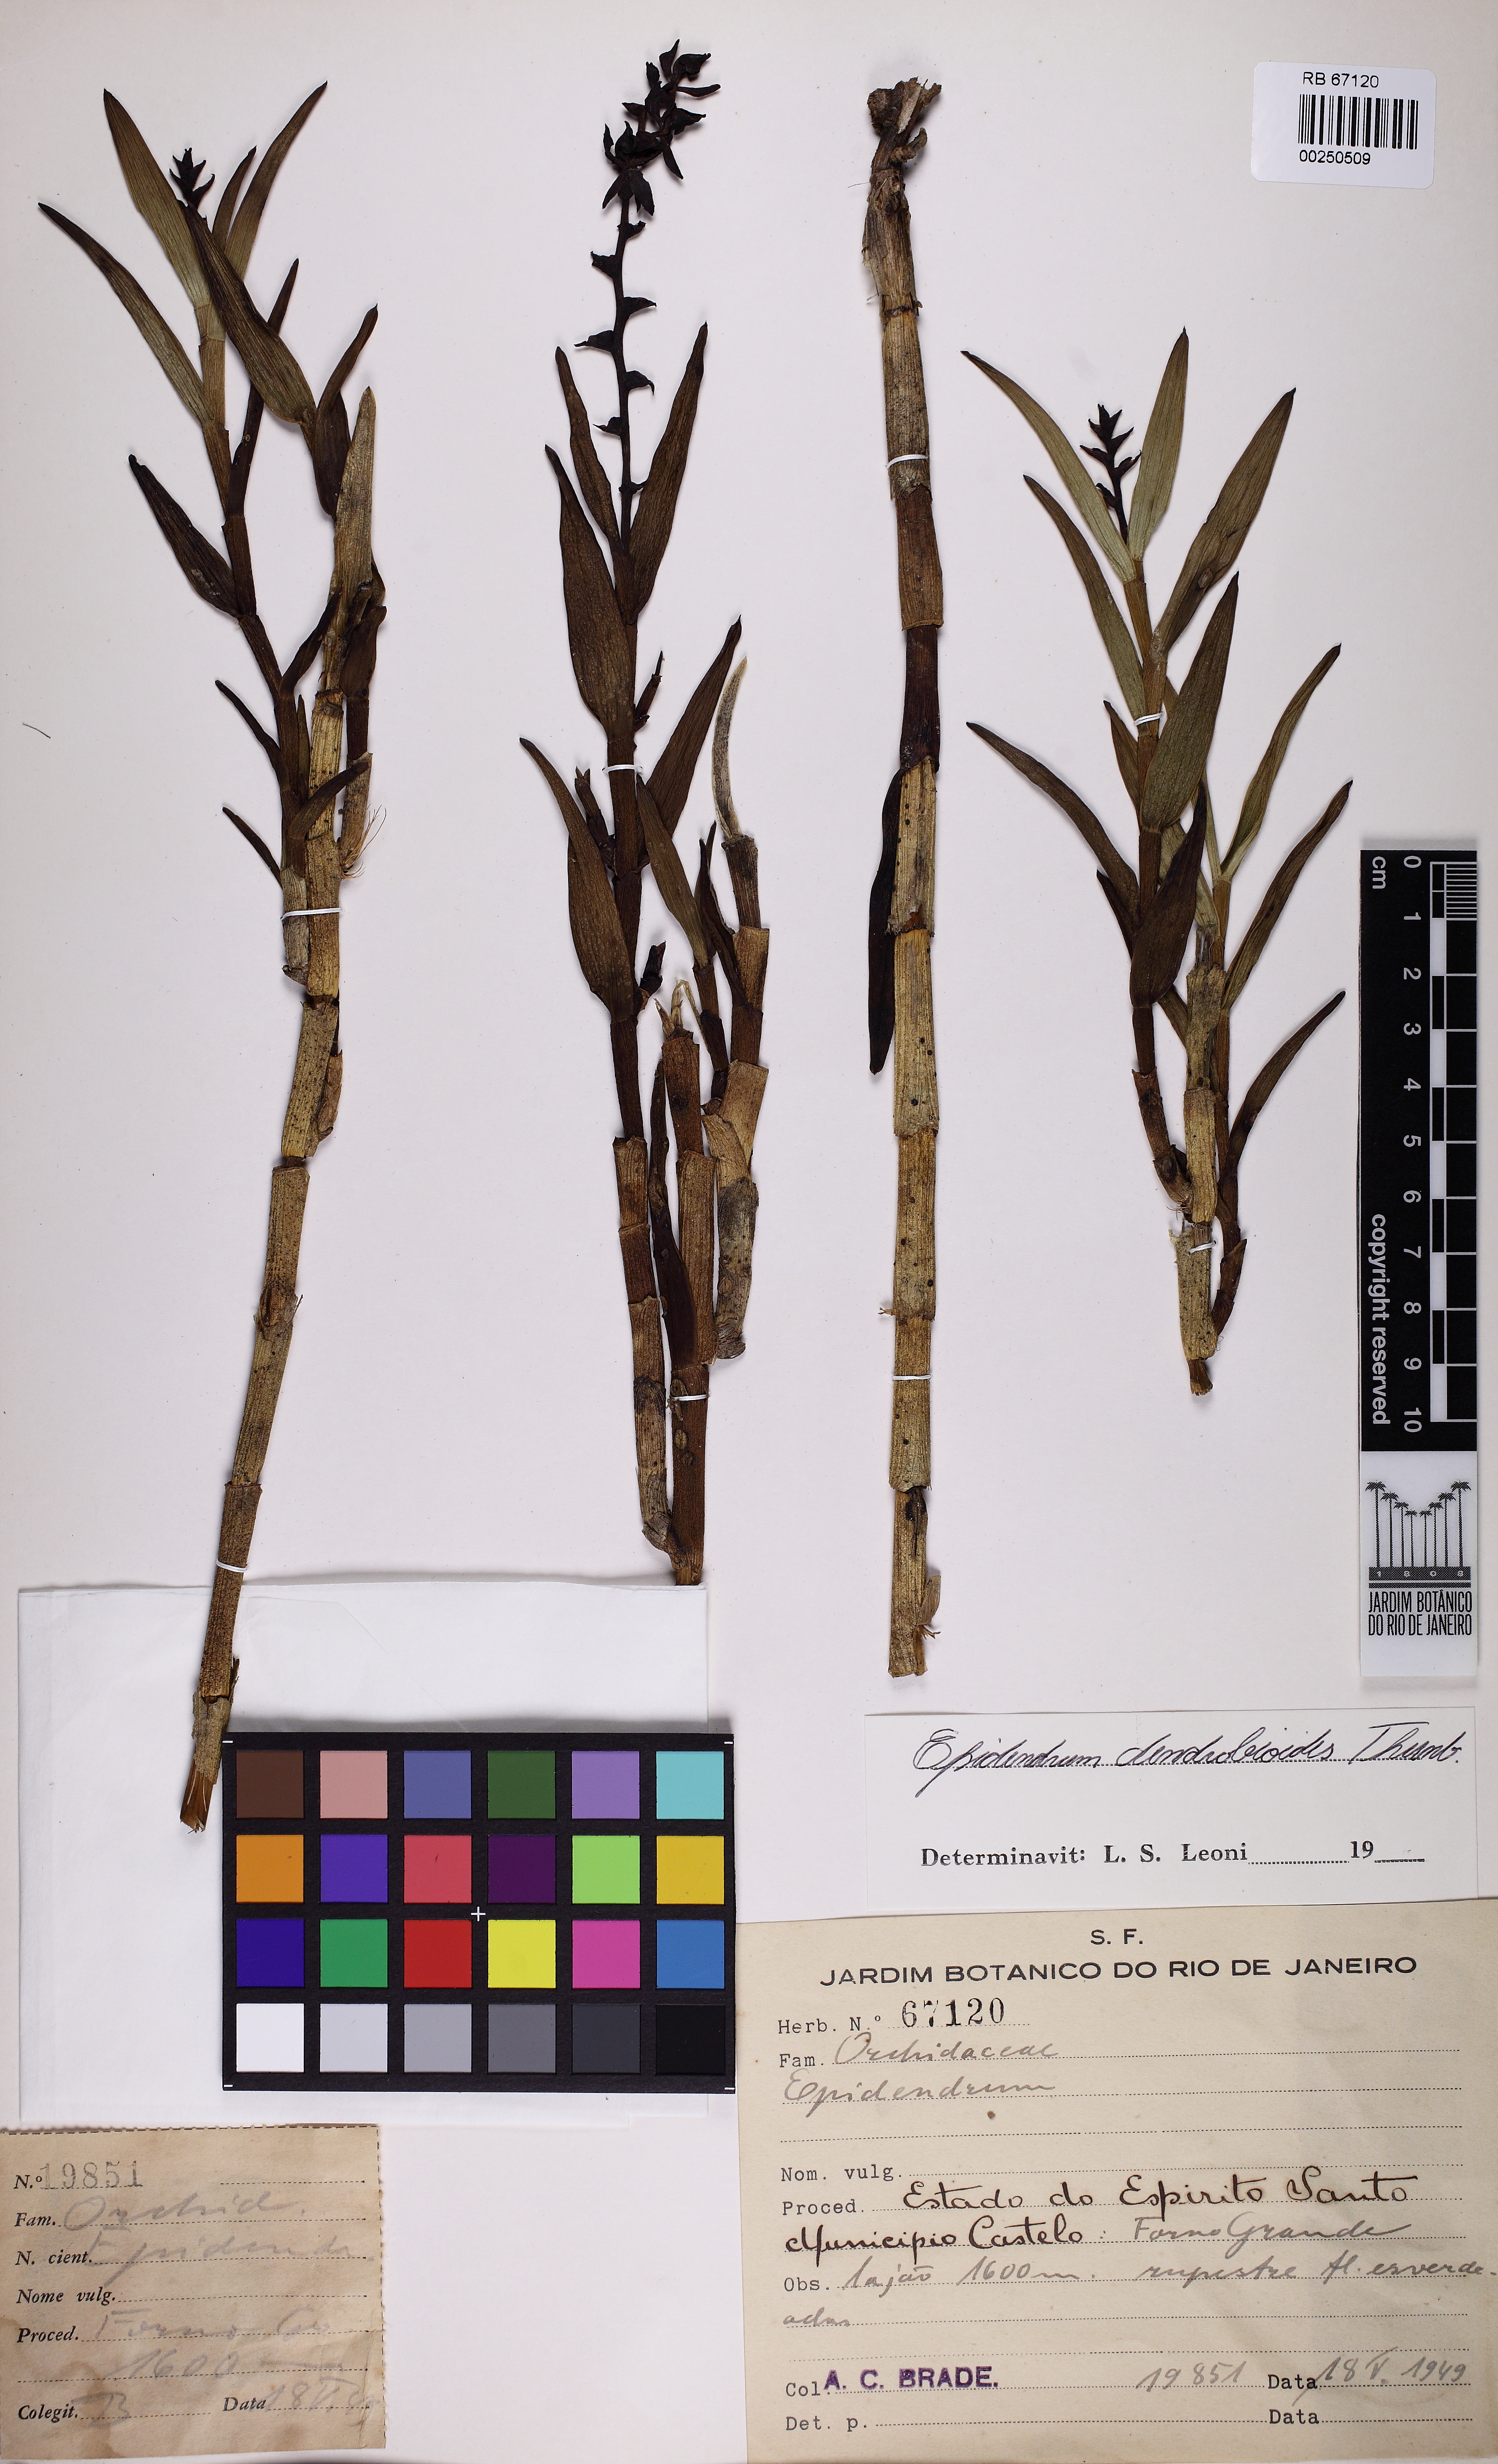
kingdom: Plantae
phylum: Tracheophyta
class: Liliopsida
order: Asparagales
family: Orchidaceae
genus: Epidendrum
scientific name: Epidendrum dendrobioides
